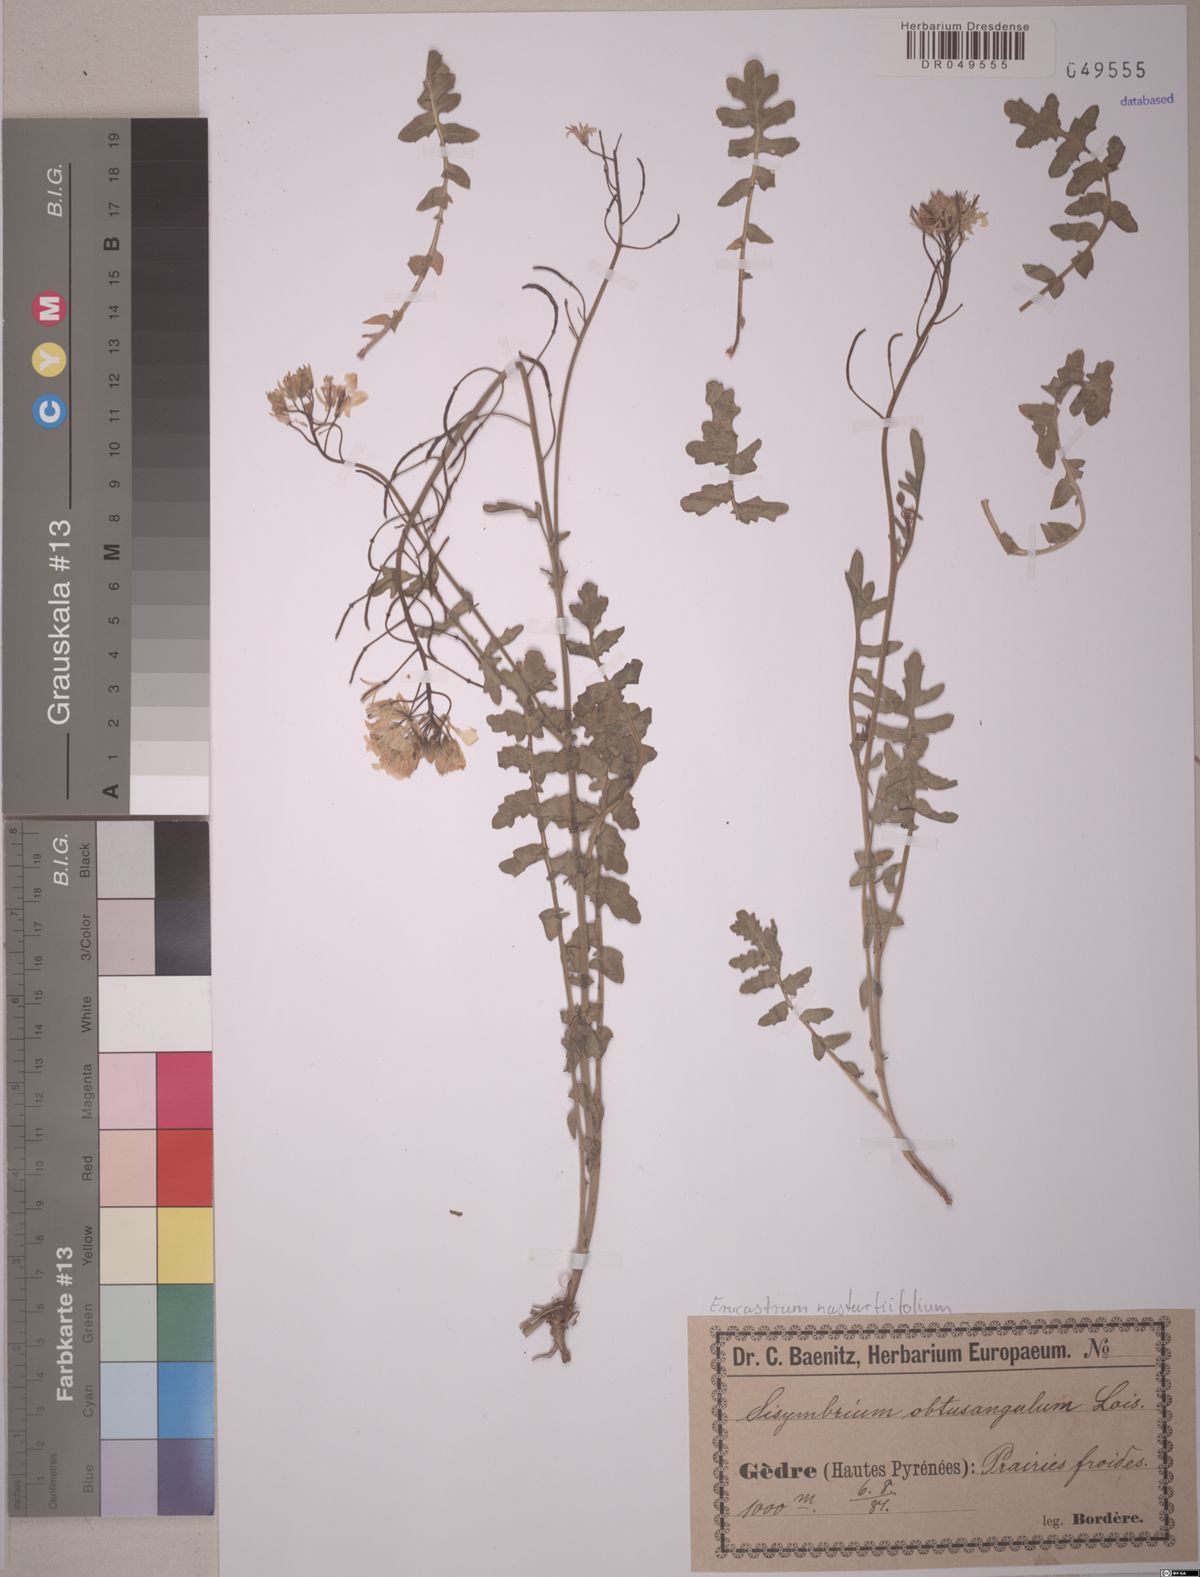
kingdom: Plantae
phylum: Tracheophyta
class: Magnoliopsida
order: Brassicales
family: Brassicaceae
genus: Erucastrum
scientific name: Erucastrum nasturtiifolium
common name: Watercress-leaf rocket
